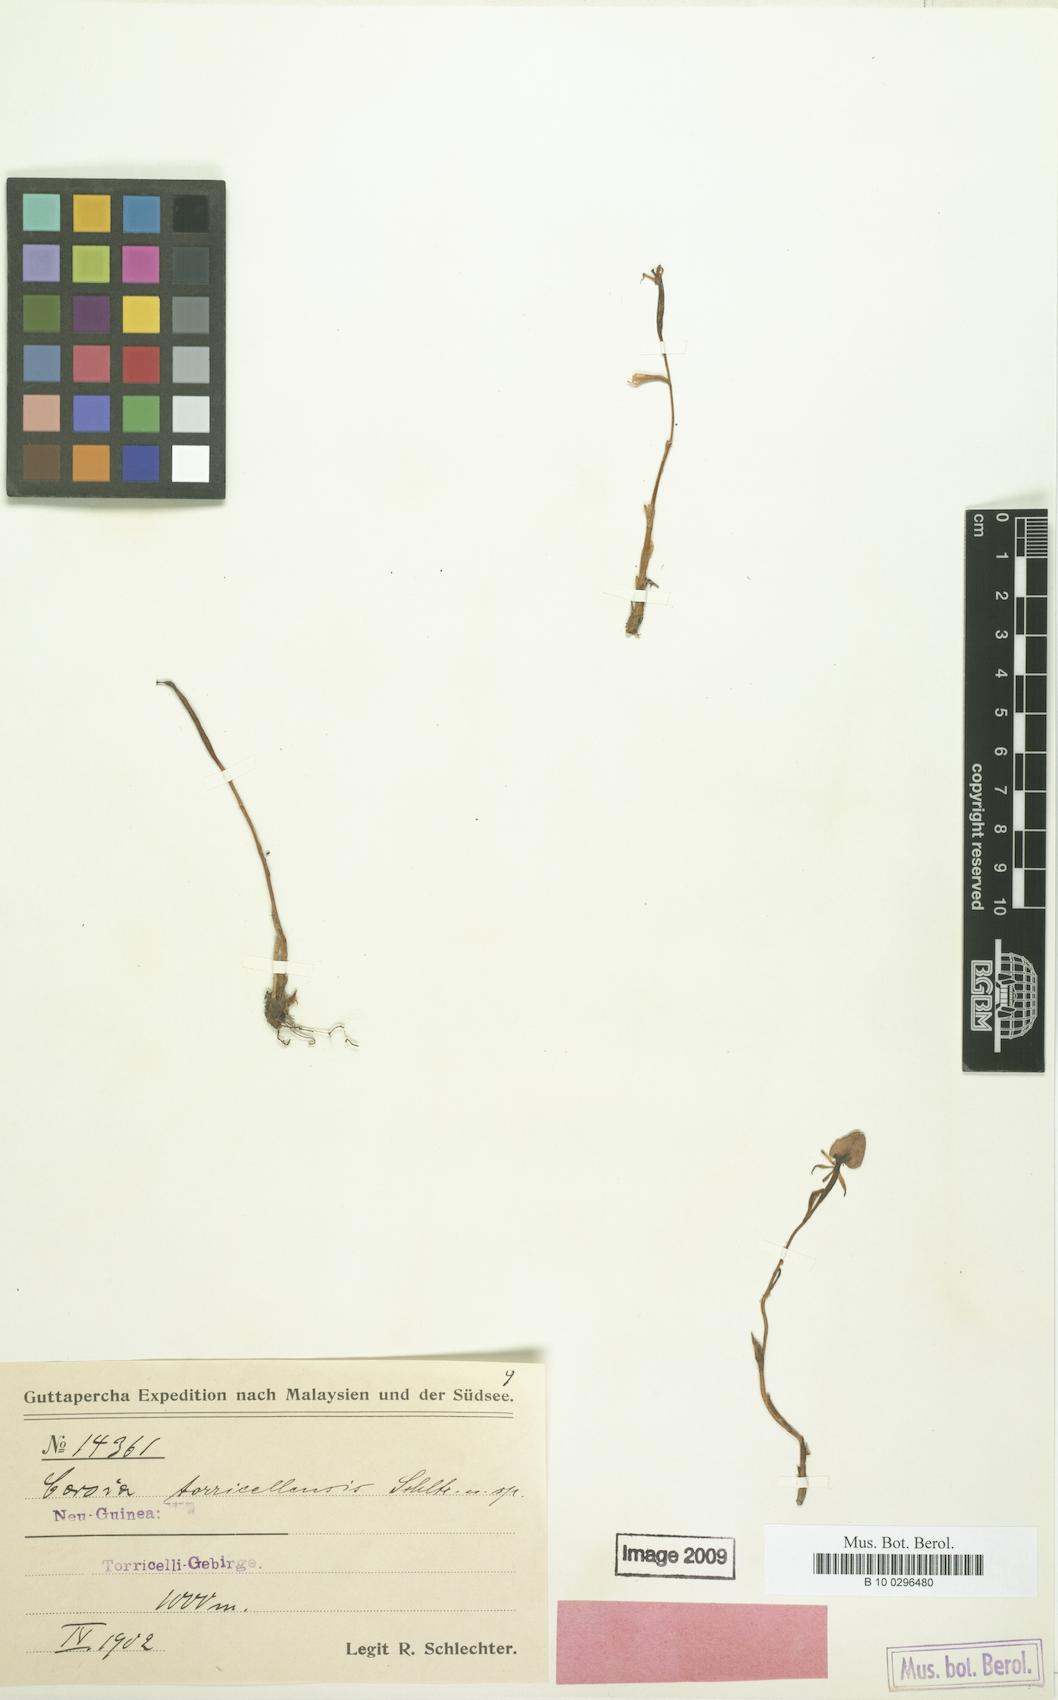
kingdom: Plantae
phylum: Tracheophyta
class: Liliopsida
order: Liliales
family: Corsiaceae
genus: Corsia
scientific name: Corsia torricellensis
